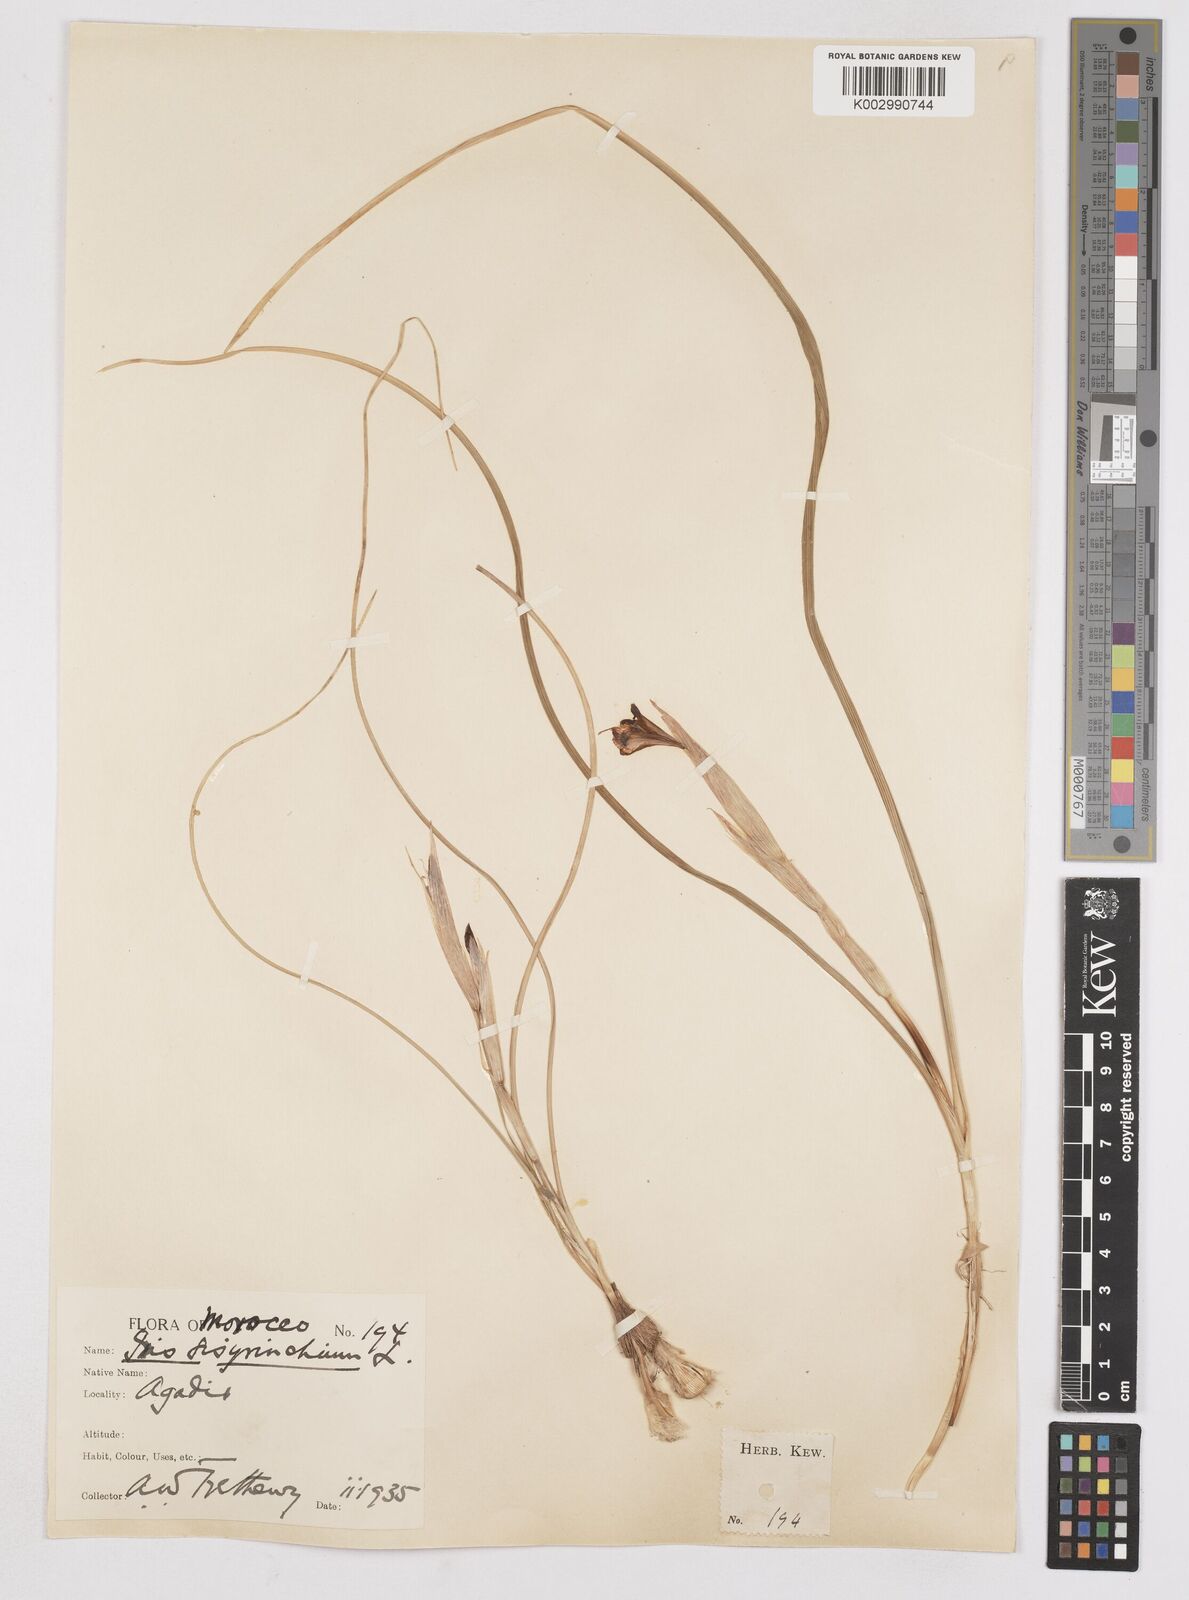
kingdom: Plantae
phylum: Tracheophyta
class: Liliopsida
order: Asparagales
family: Iridaceae
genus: Moraea
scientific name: Moraea sisyrinchium
